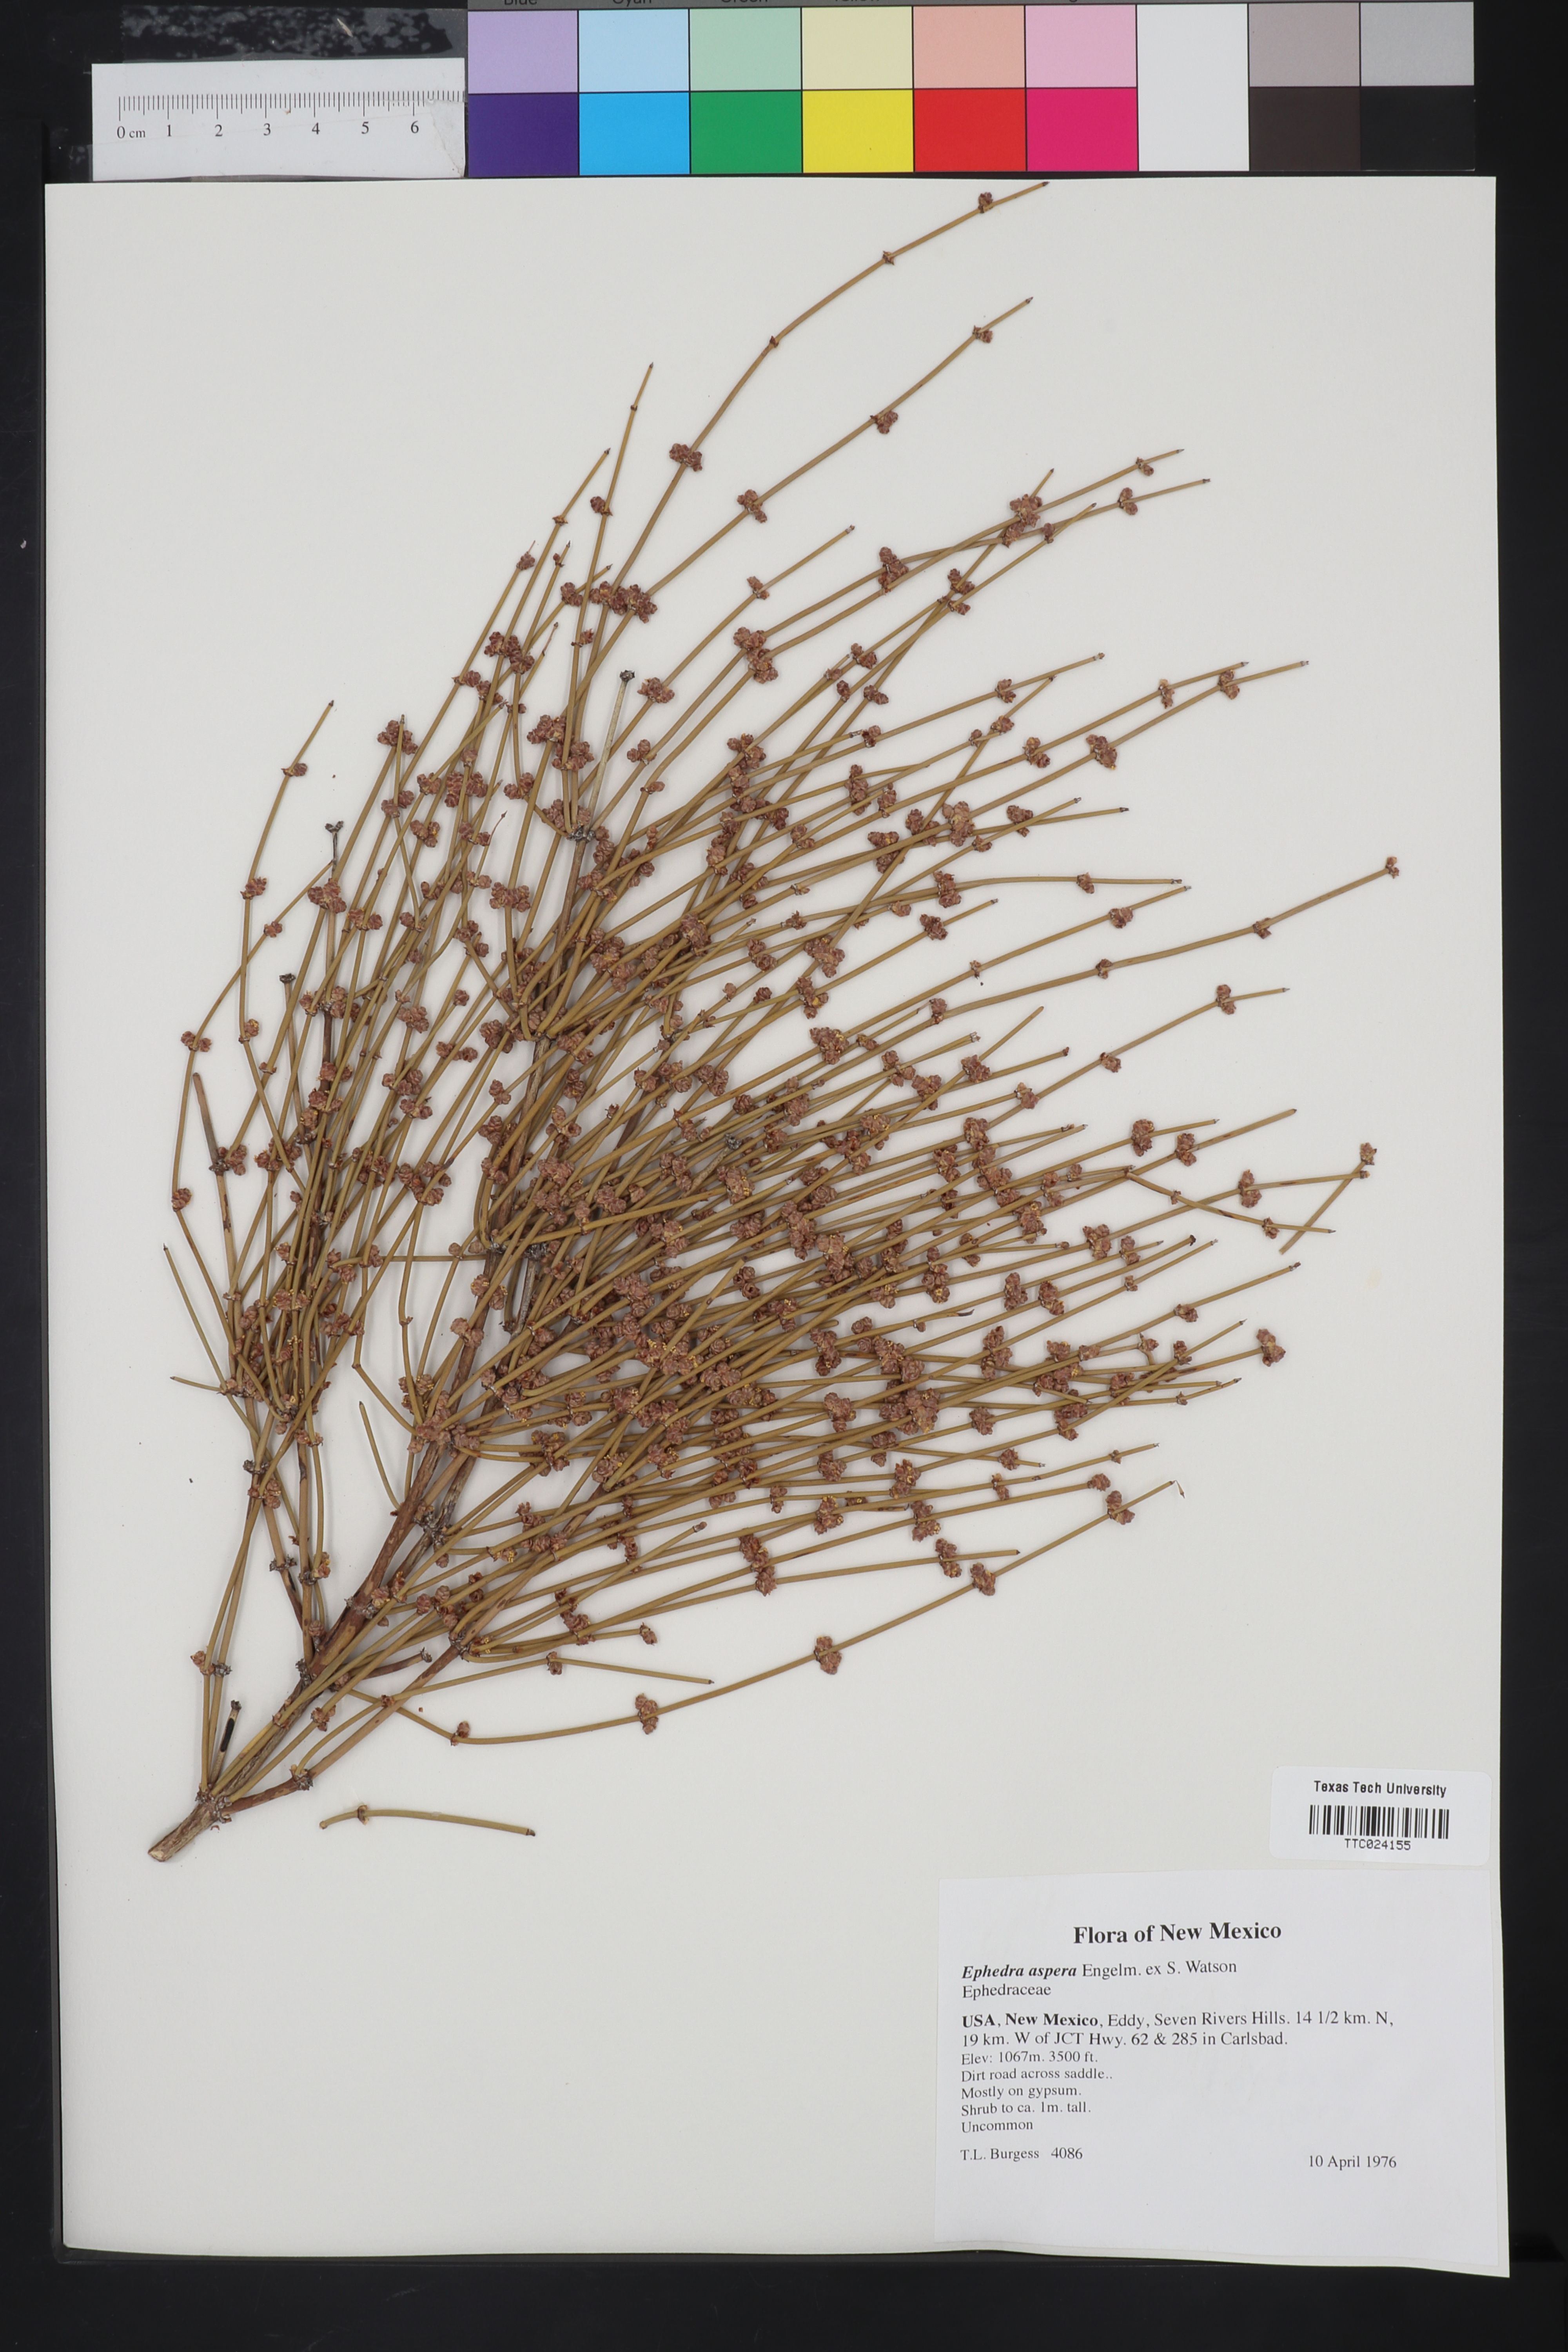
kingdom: Plantae
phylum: Tracheophyta
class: Gnetopsida
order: Ephedrales
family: Ephedraceae
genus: Ephedra
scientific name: Ephedra aspera
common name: Boundary ephedra
